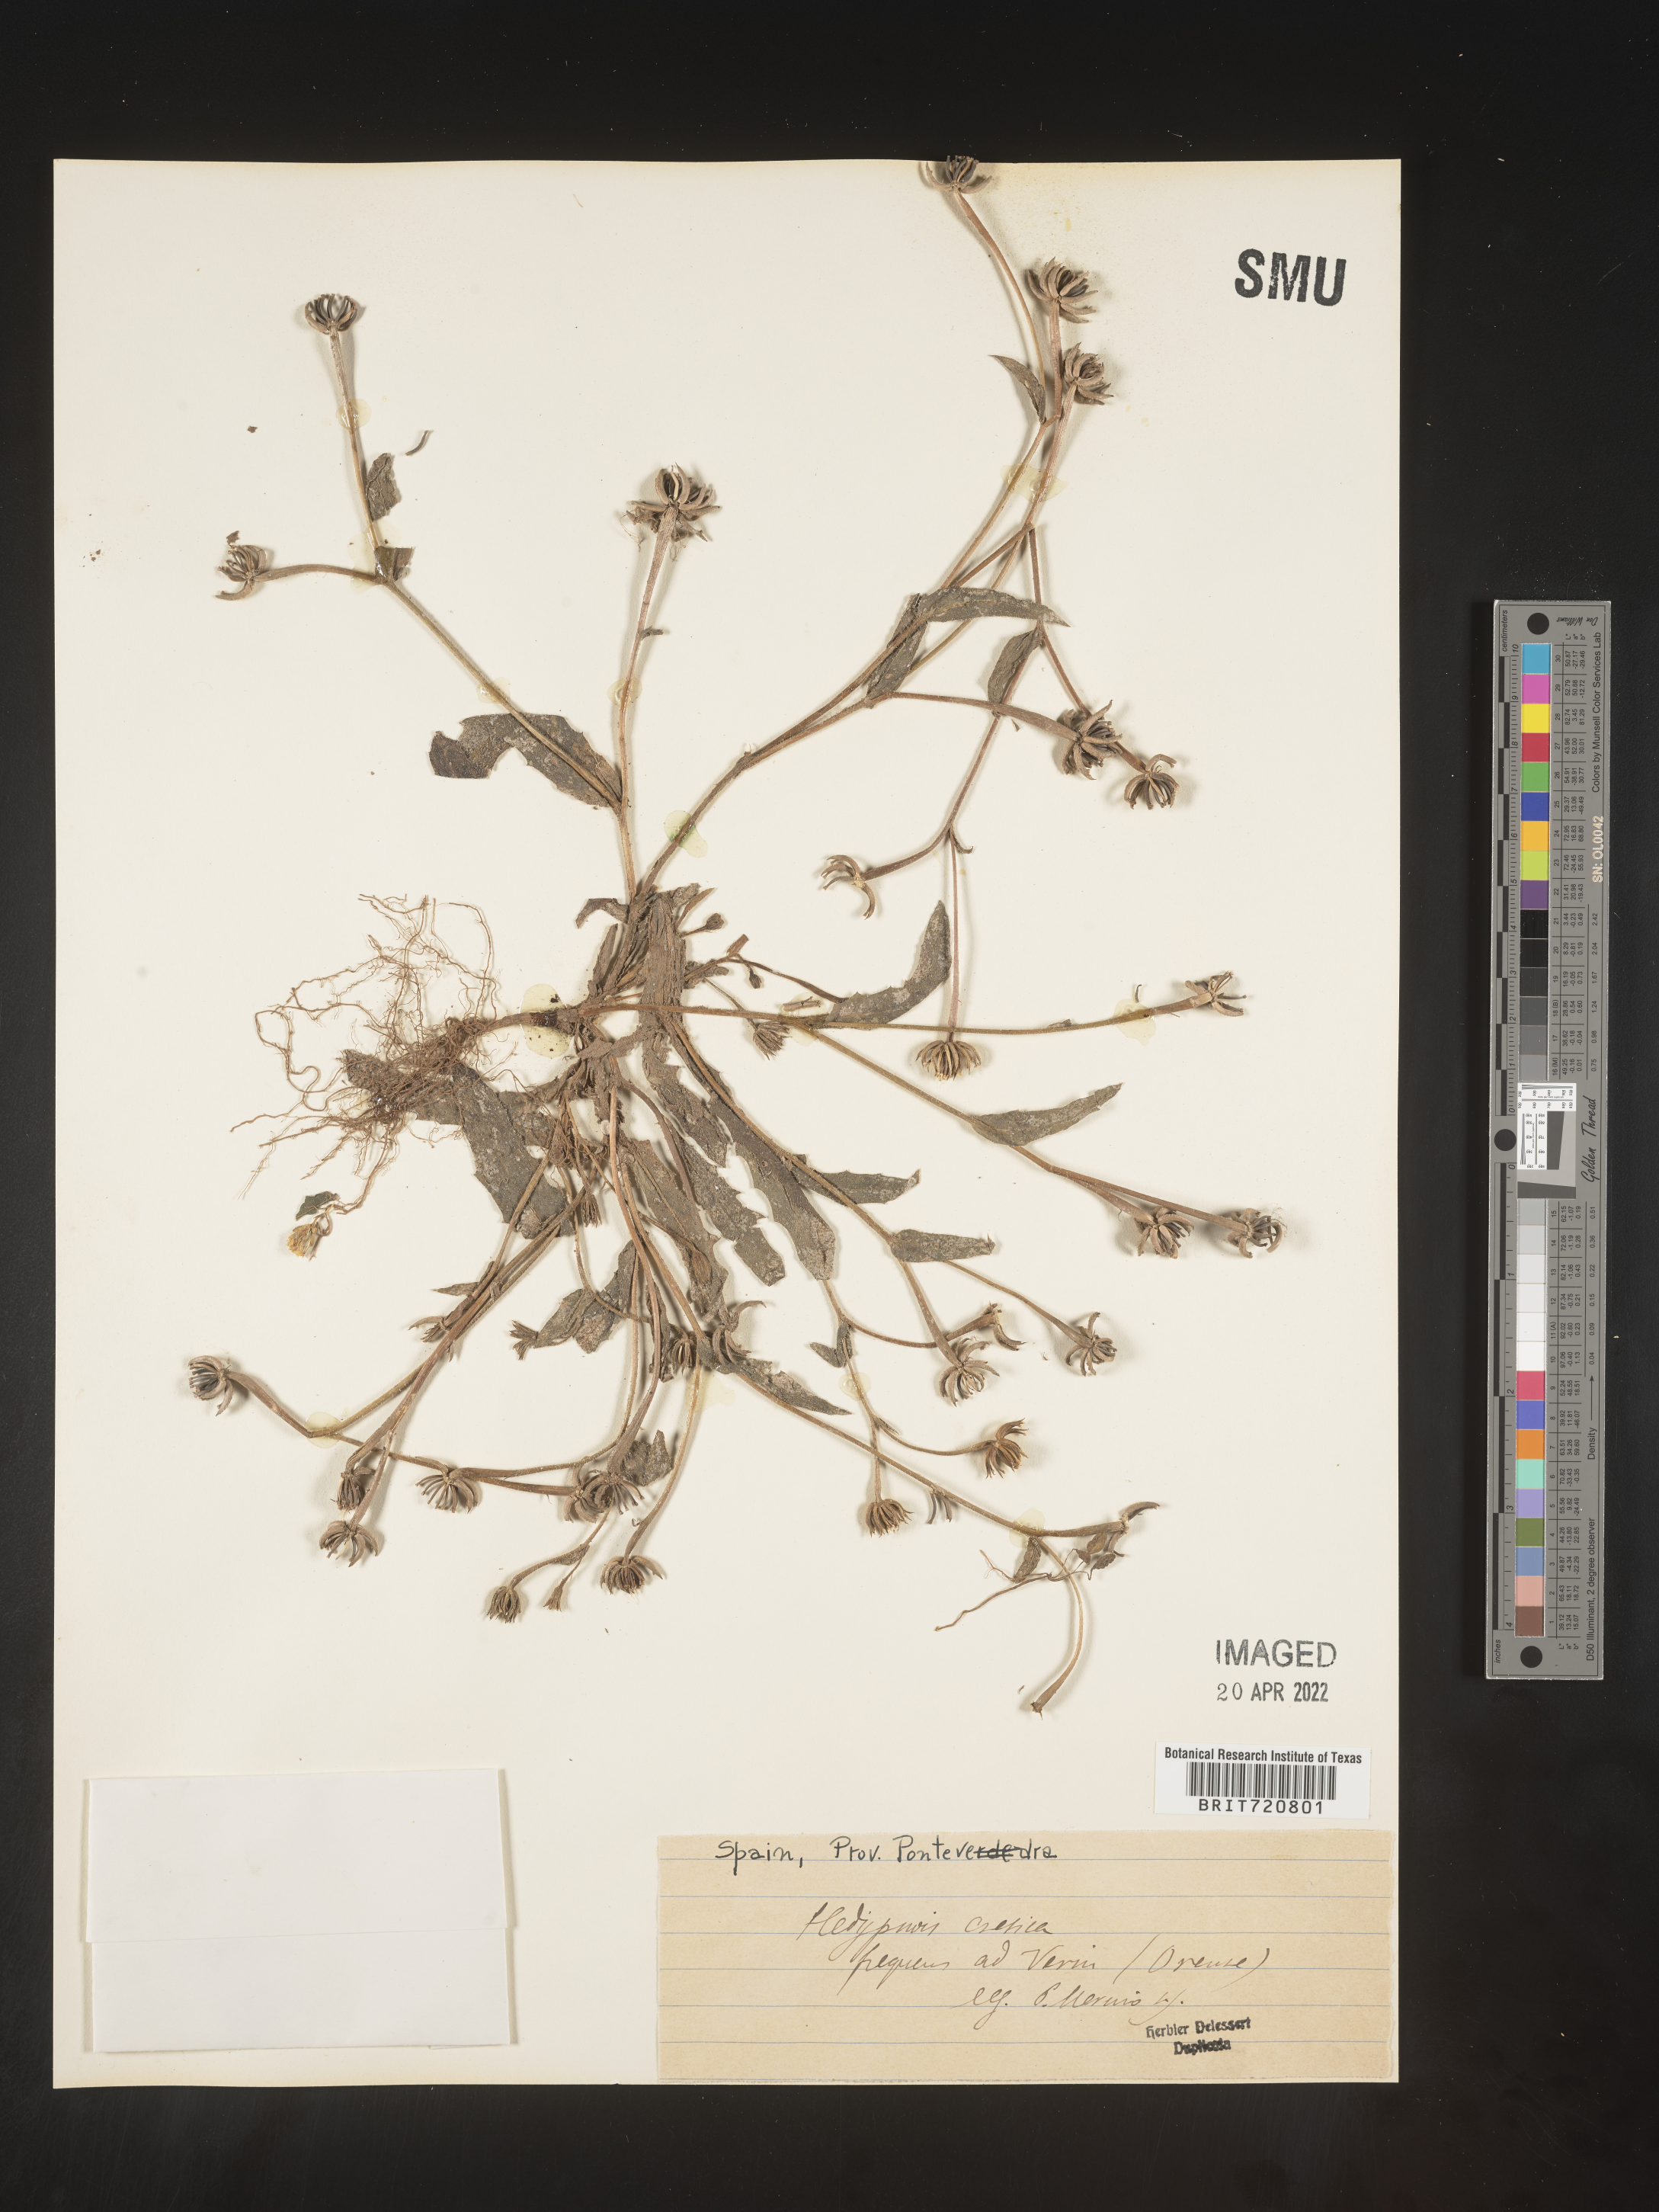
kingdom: Plantae
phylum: Tracheophyta
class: Magnoliopsida
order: Asterales
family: Asteraceae
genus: Hedypnois
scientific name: Hedypnois
